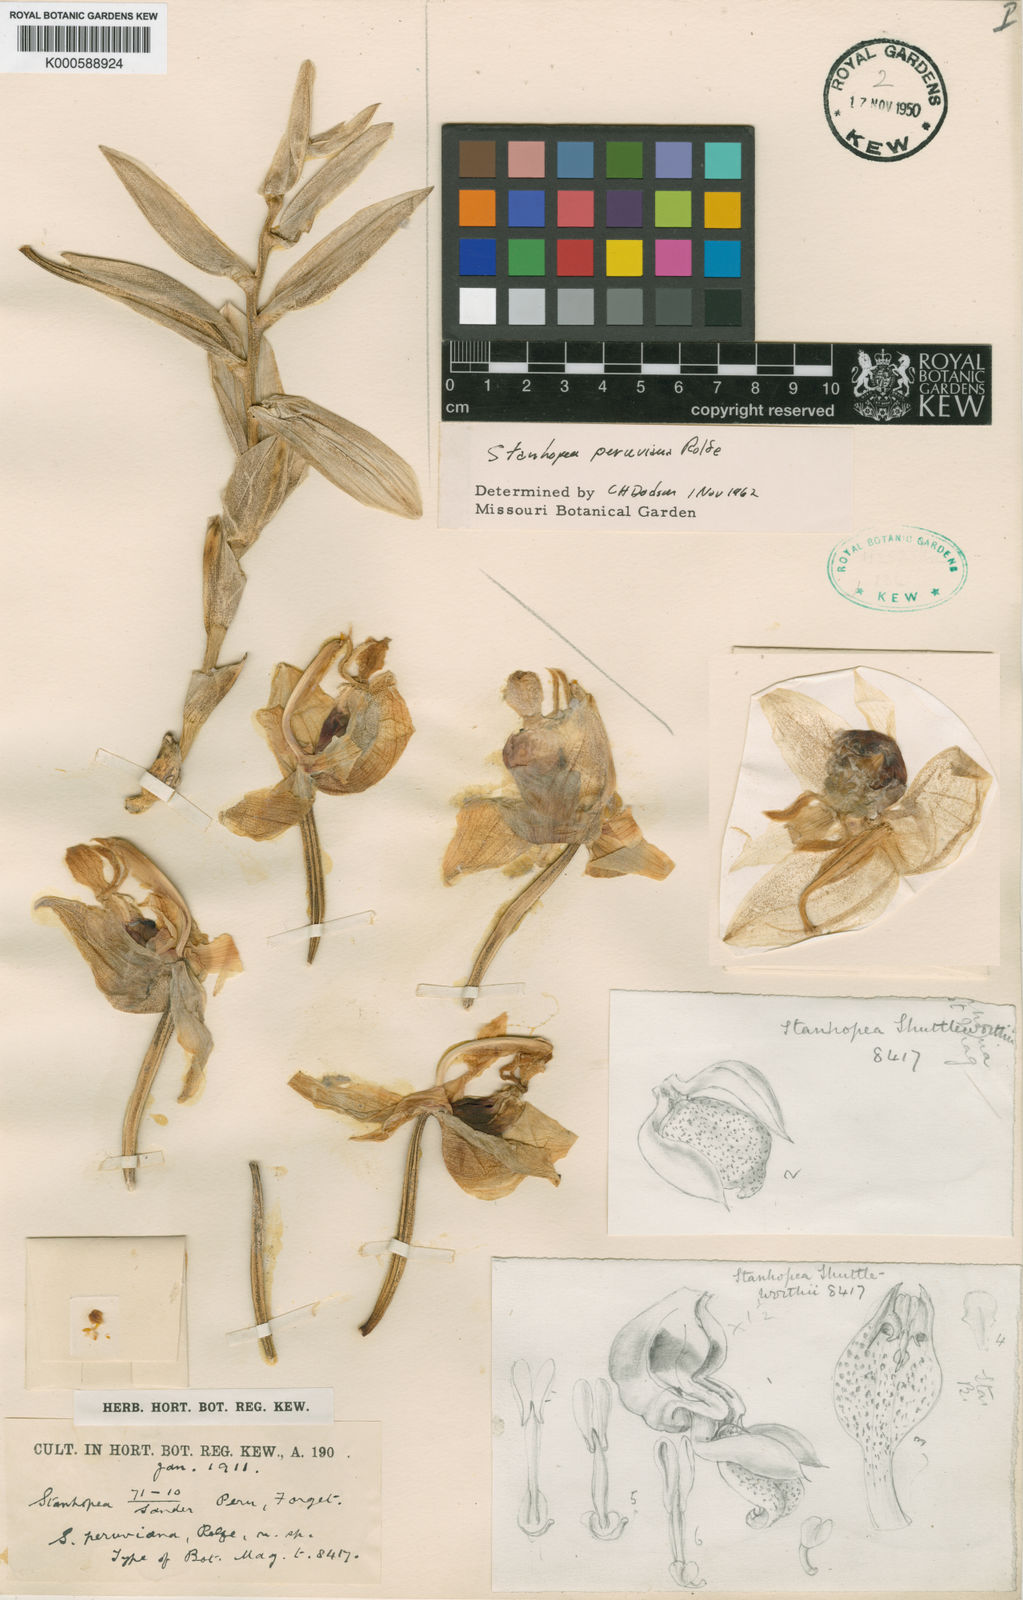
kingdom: Plantae
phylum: Tracheophyta
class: Liliopsida
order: Asparagales
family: Orchidaceae
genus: Stanhopea
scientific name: Stanhopea peruviana
